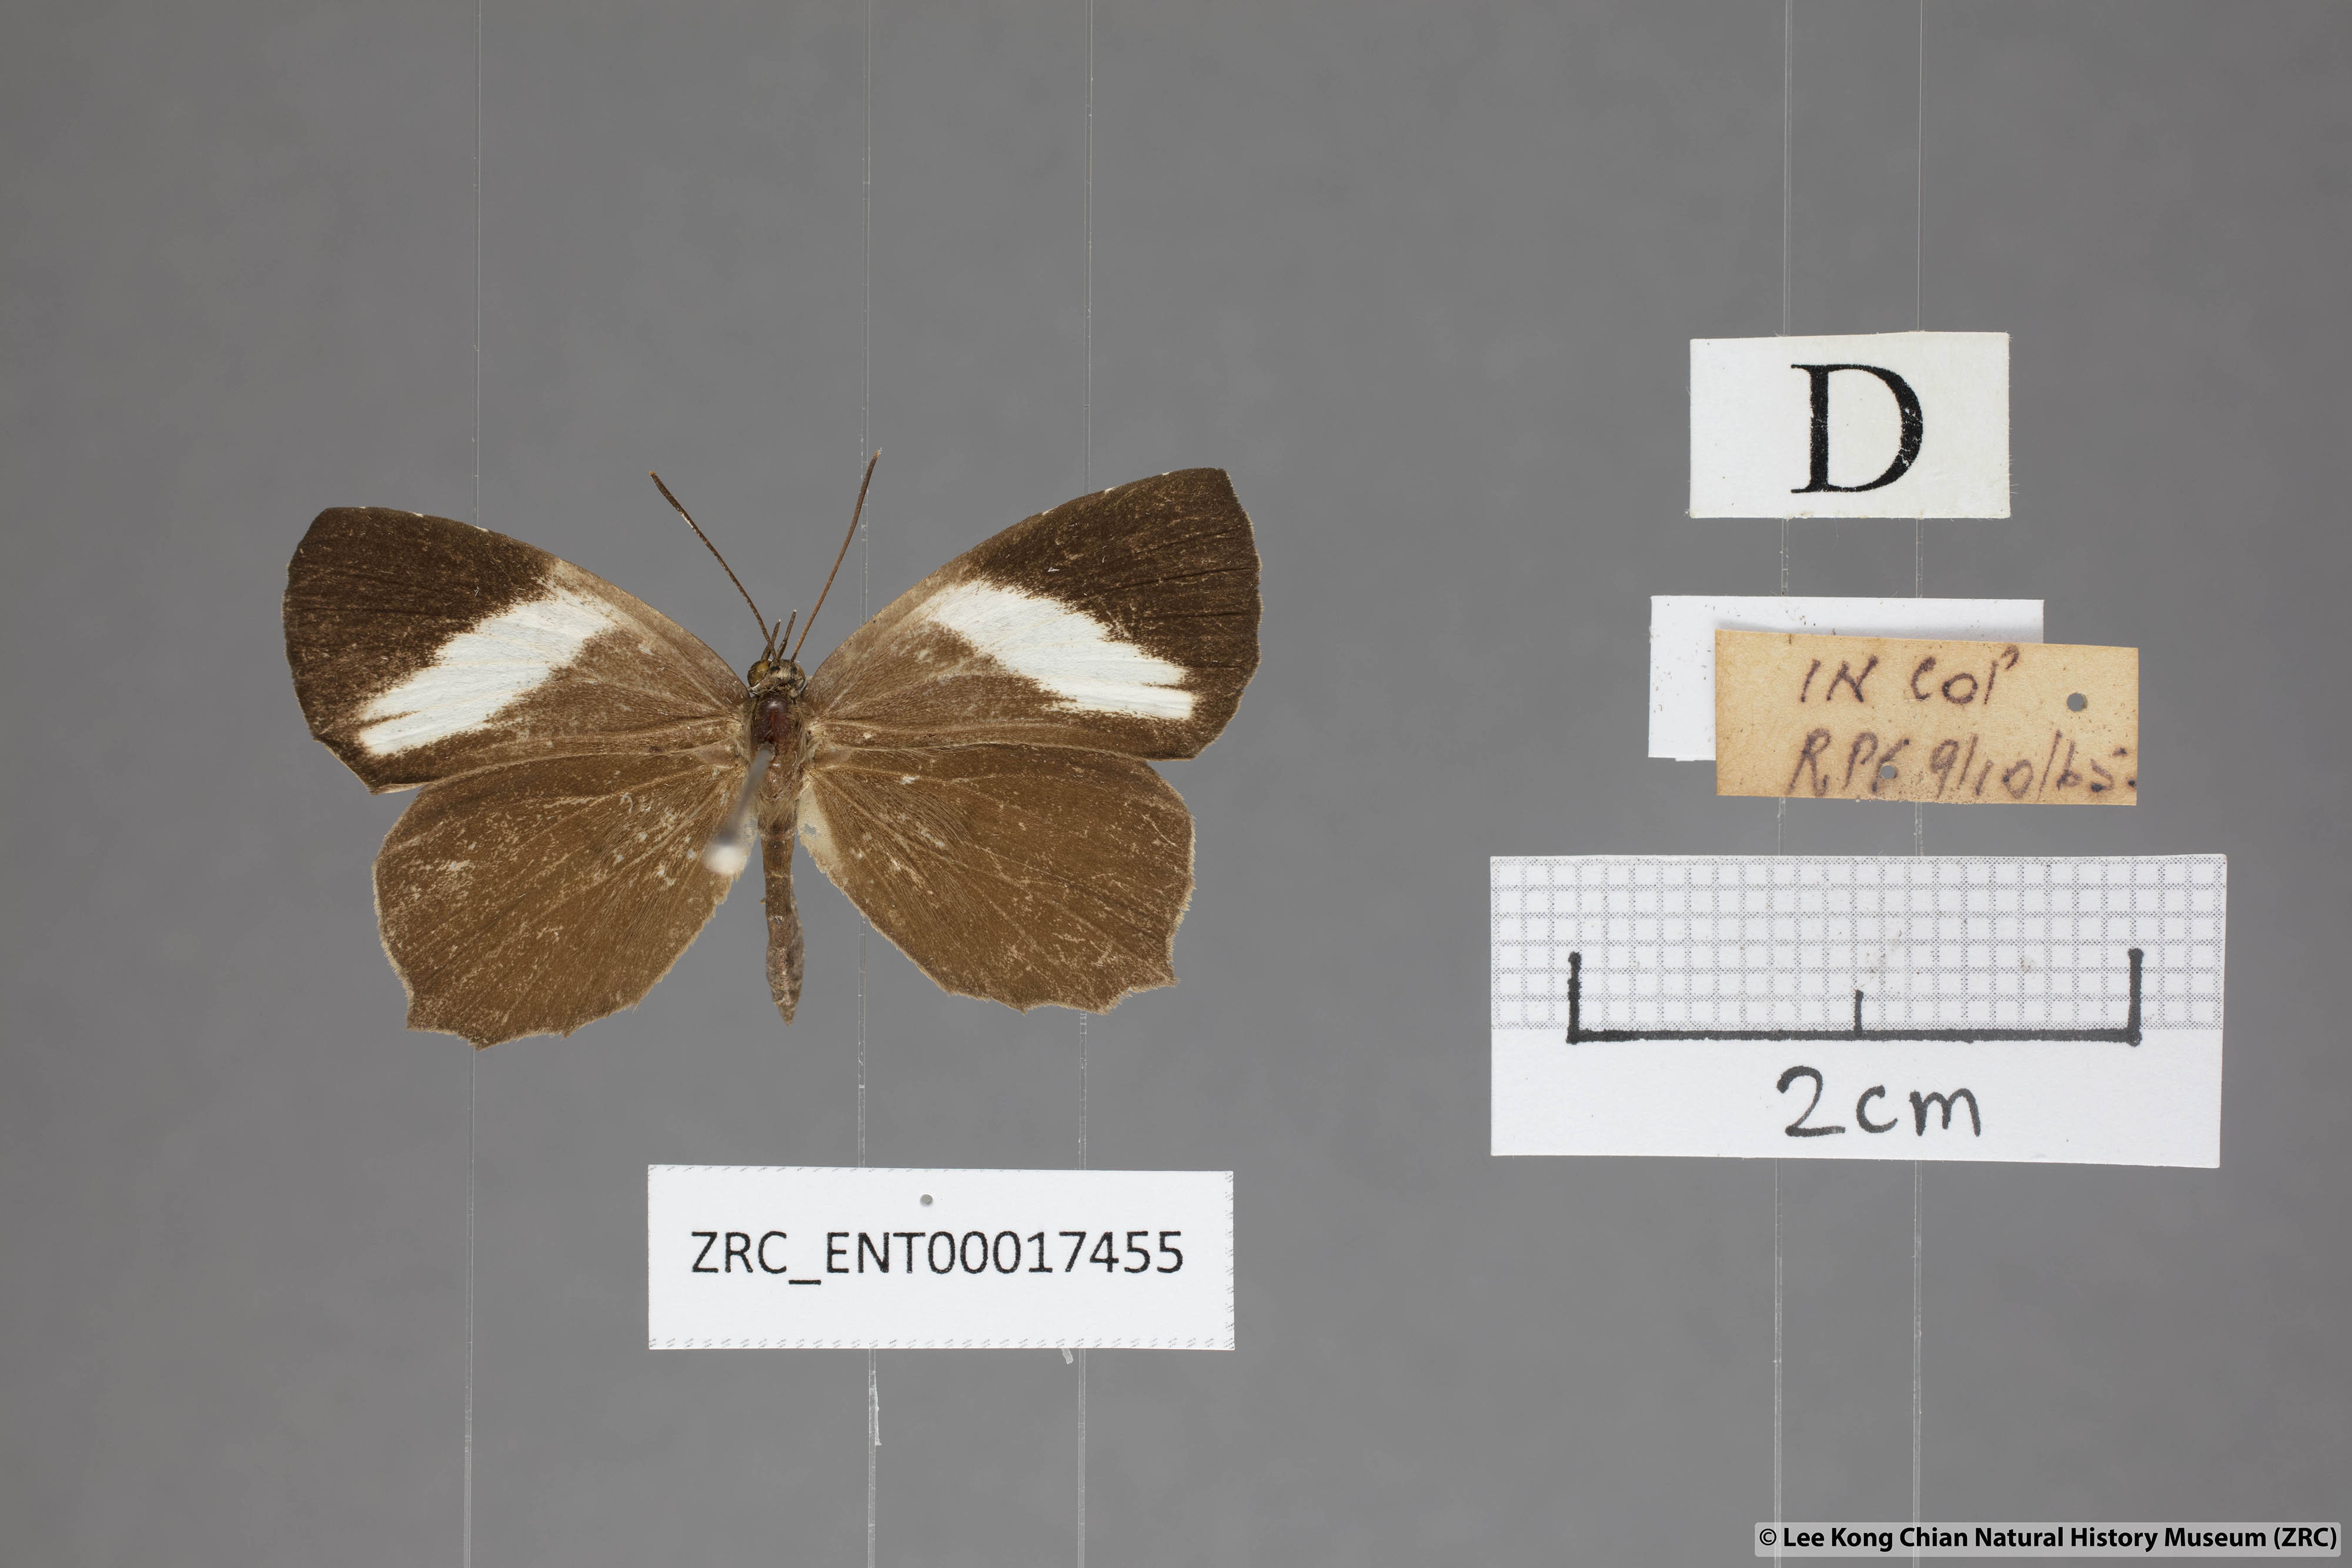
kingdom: Animalia
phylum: Arthropoda
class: Insecta
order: Lepidoptera
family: Lycaenidae
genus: Miletus
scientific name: Miletus gopara
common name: Round-banded brownie
